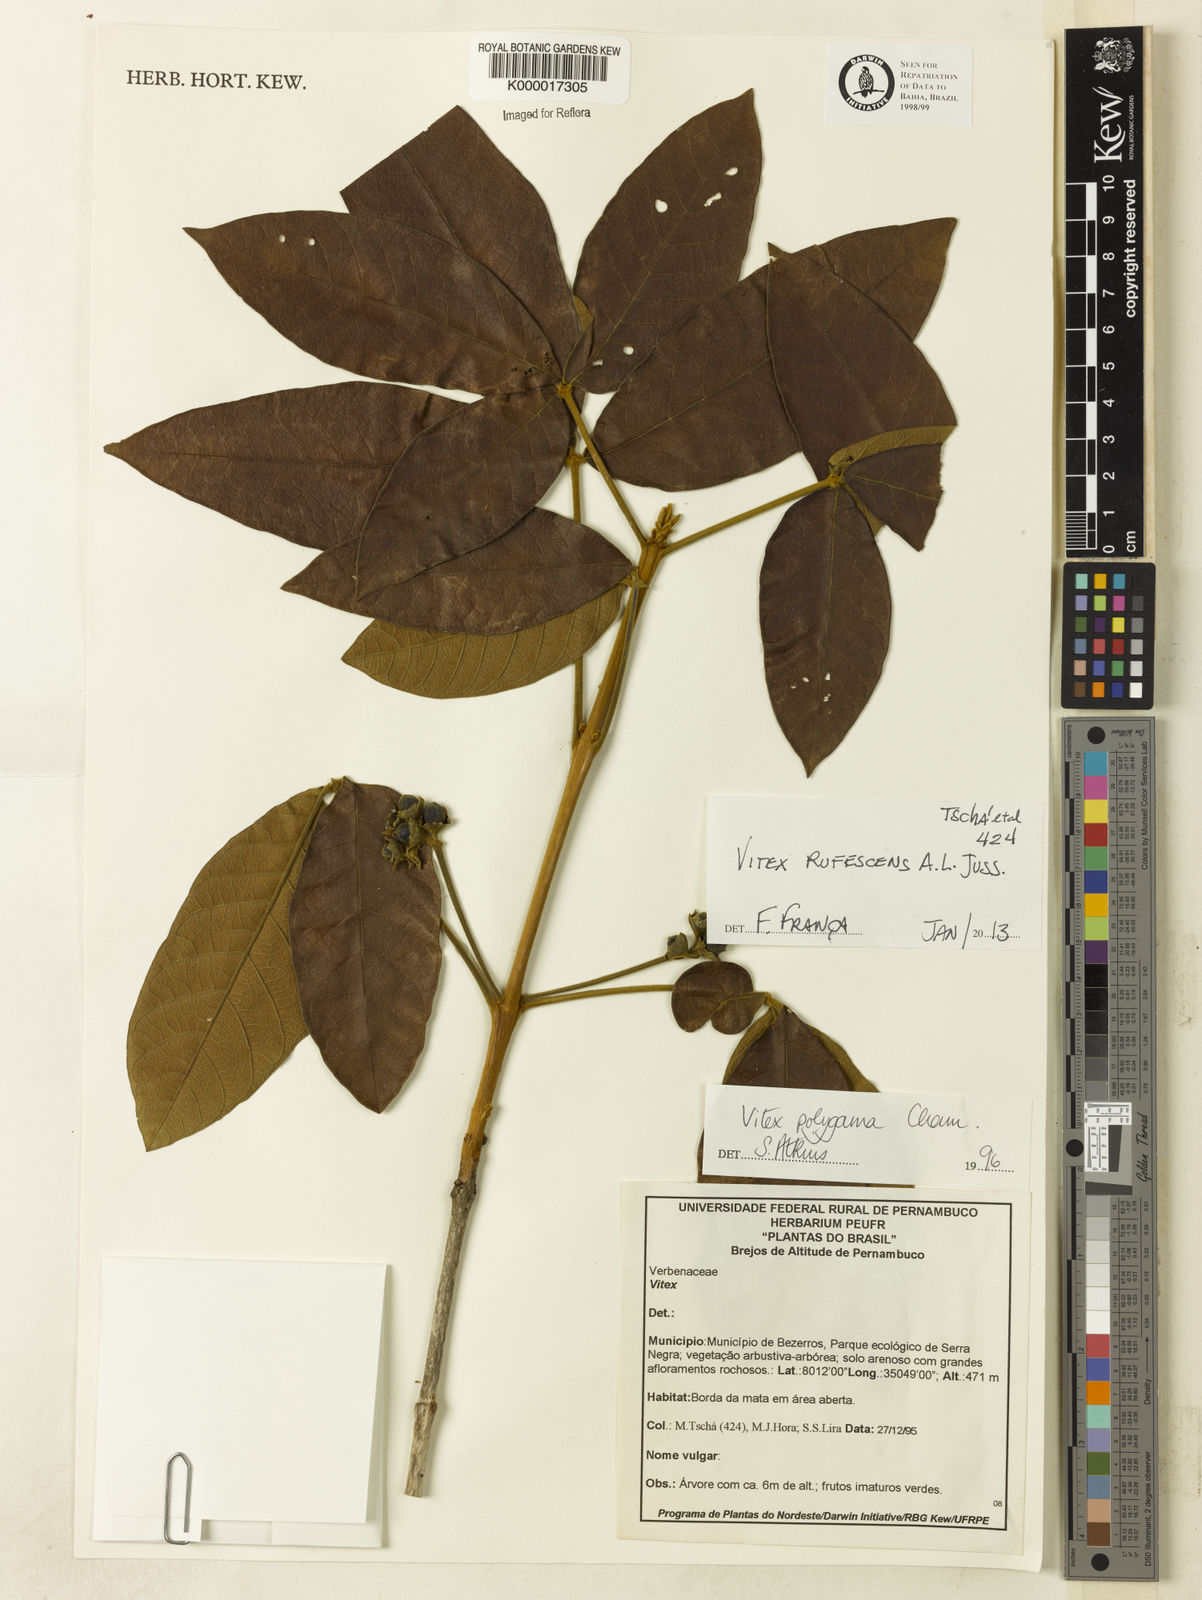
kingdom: Plantae
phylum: Tracheophyta
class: Magnoliopsida
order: Lamiales
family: Lamiaceae
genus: Vitex
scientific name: Vitex rufescens
